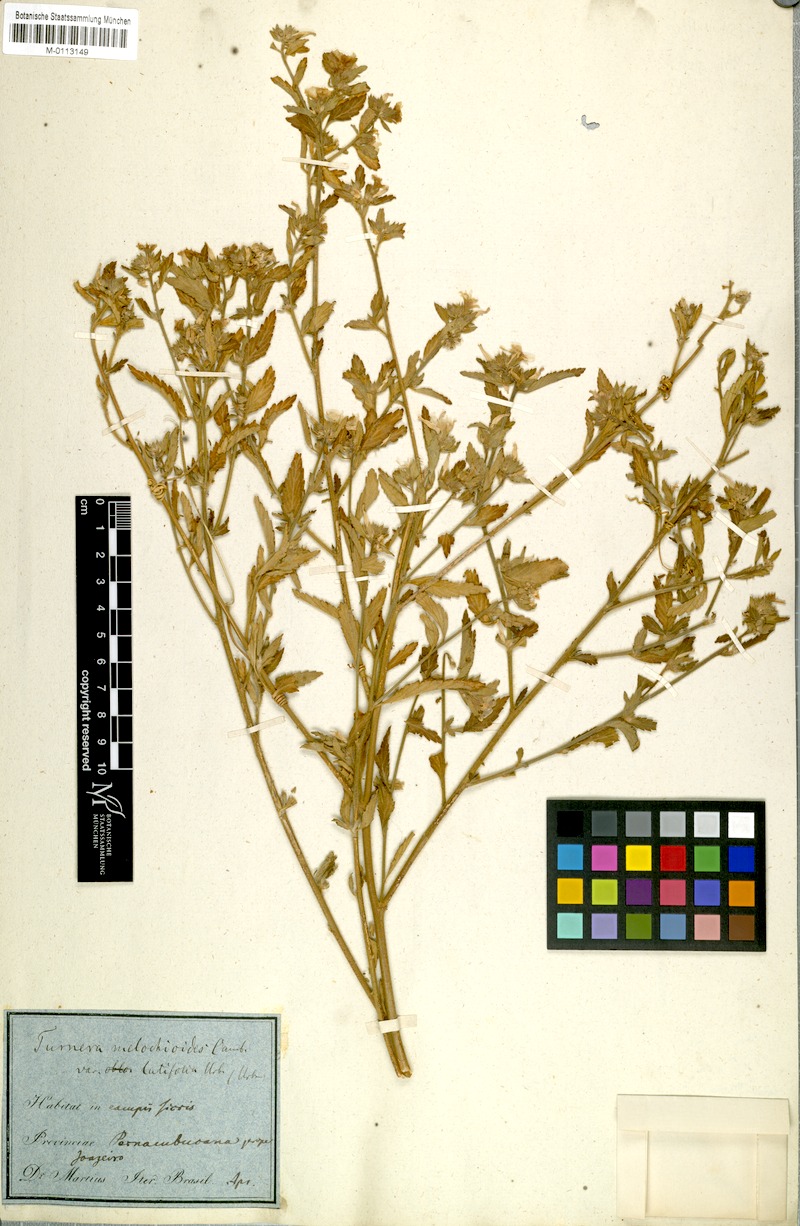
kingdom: Plantae
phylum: Tracheophyta
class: Magnoliopsida
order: Malpighiales
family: Turneraceae
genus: Turnera
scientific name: Turnera arenaria
